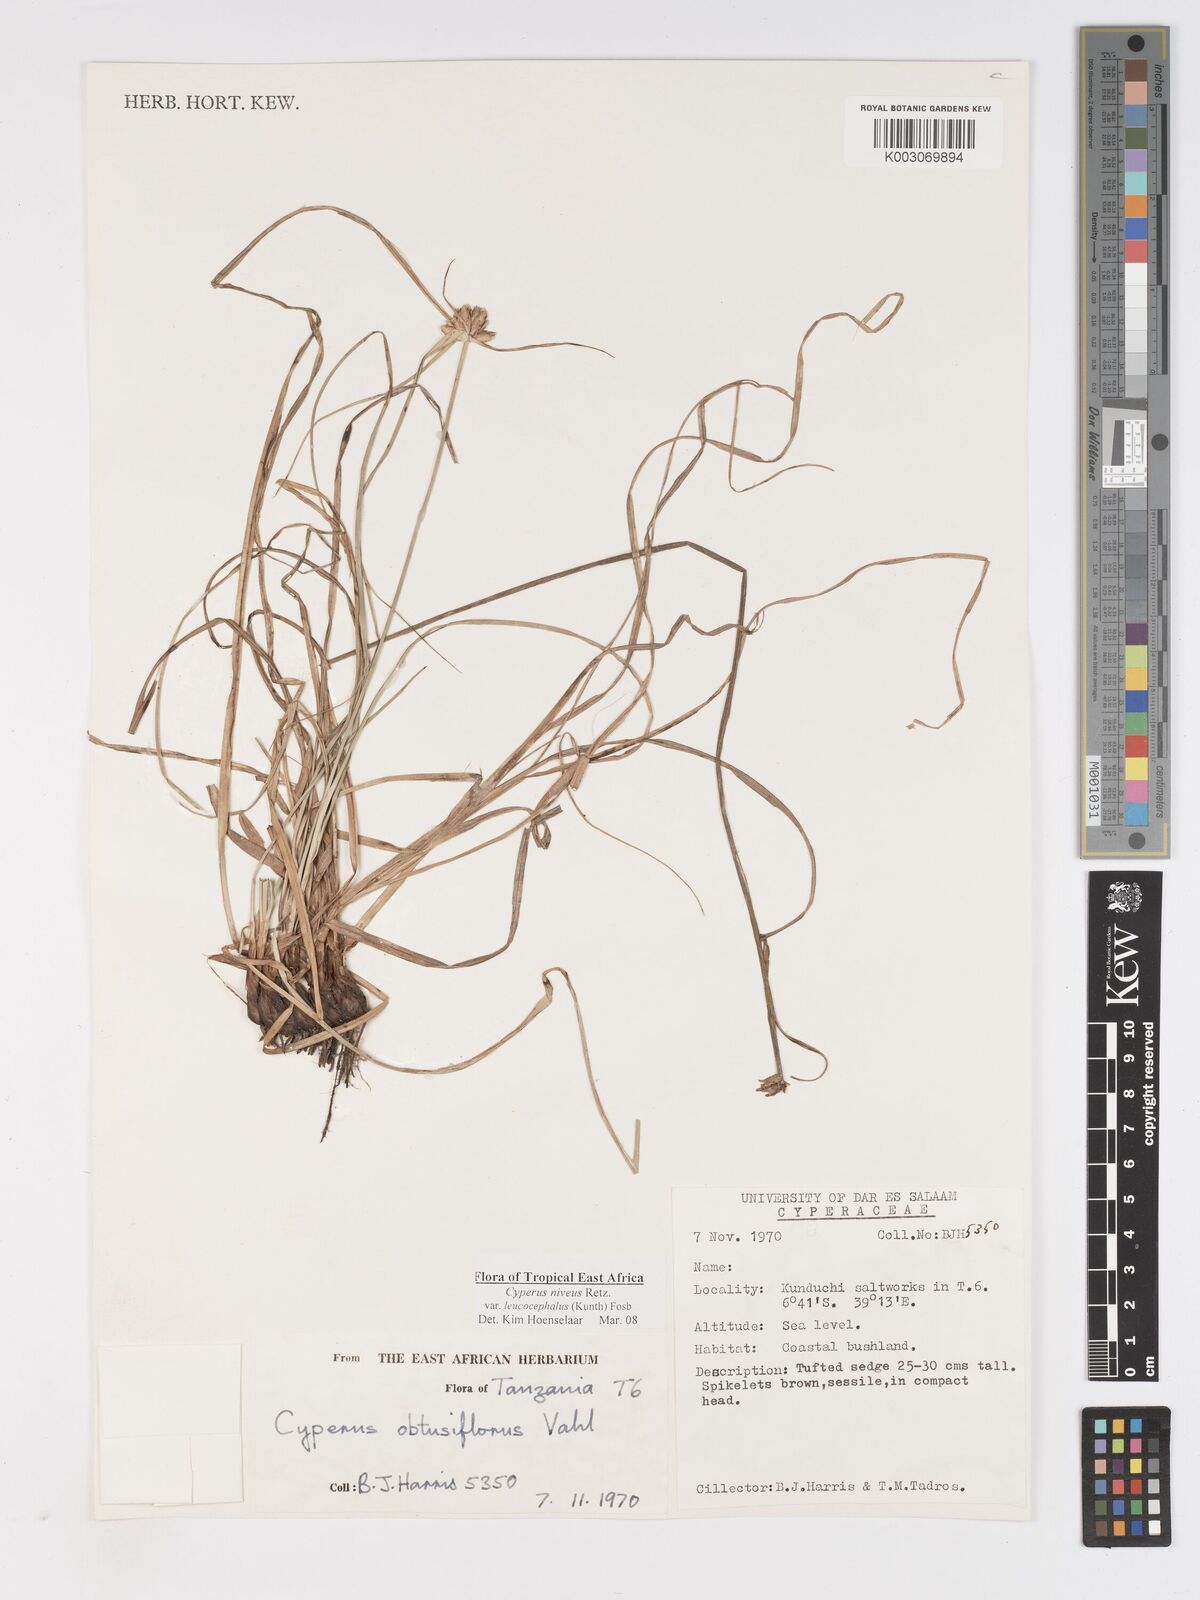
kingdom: Plantae
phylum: Tracheophyta
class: Liliopsida
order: Poales
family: Cyperaceae
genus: Cyperus
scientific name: Cyperus niveus
